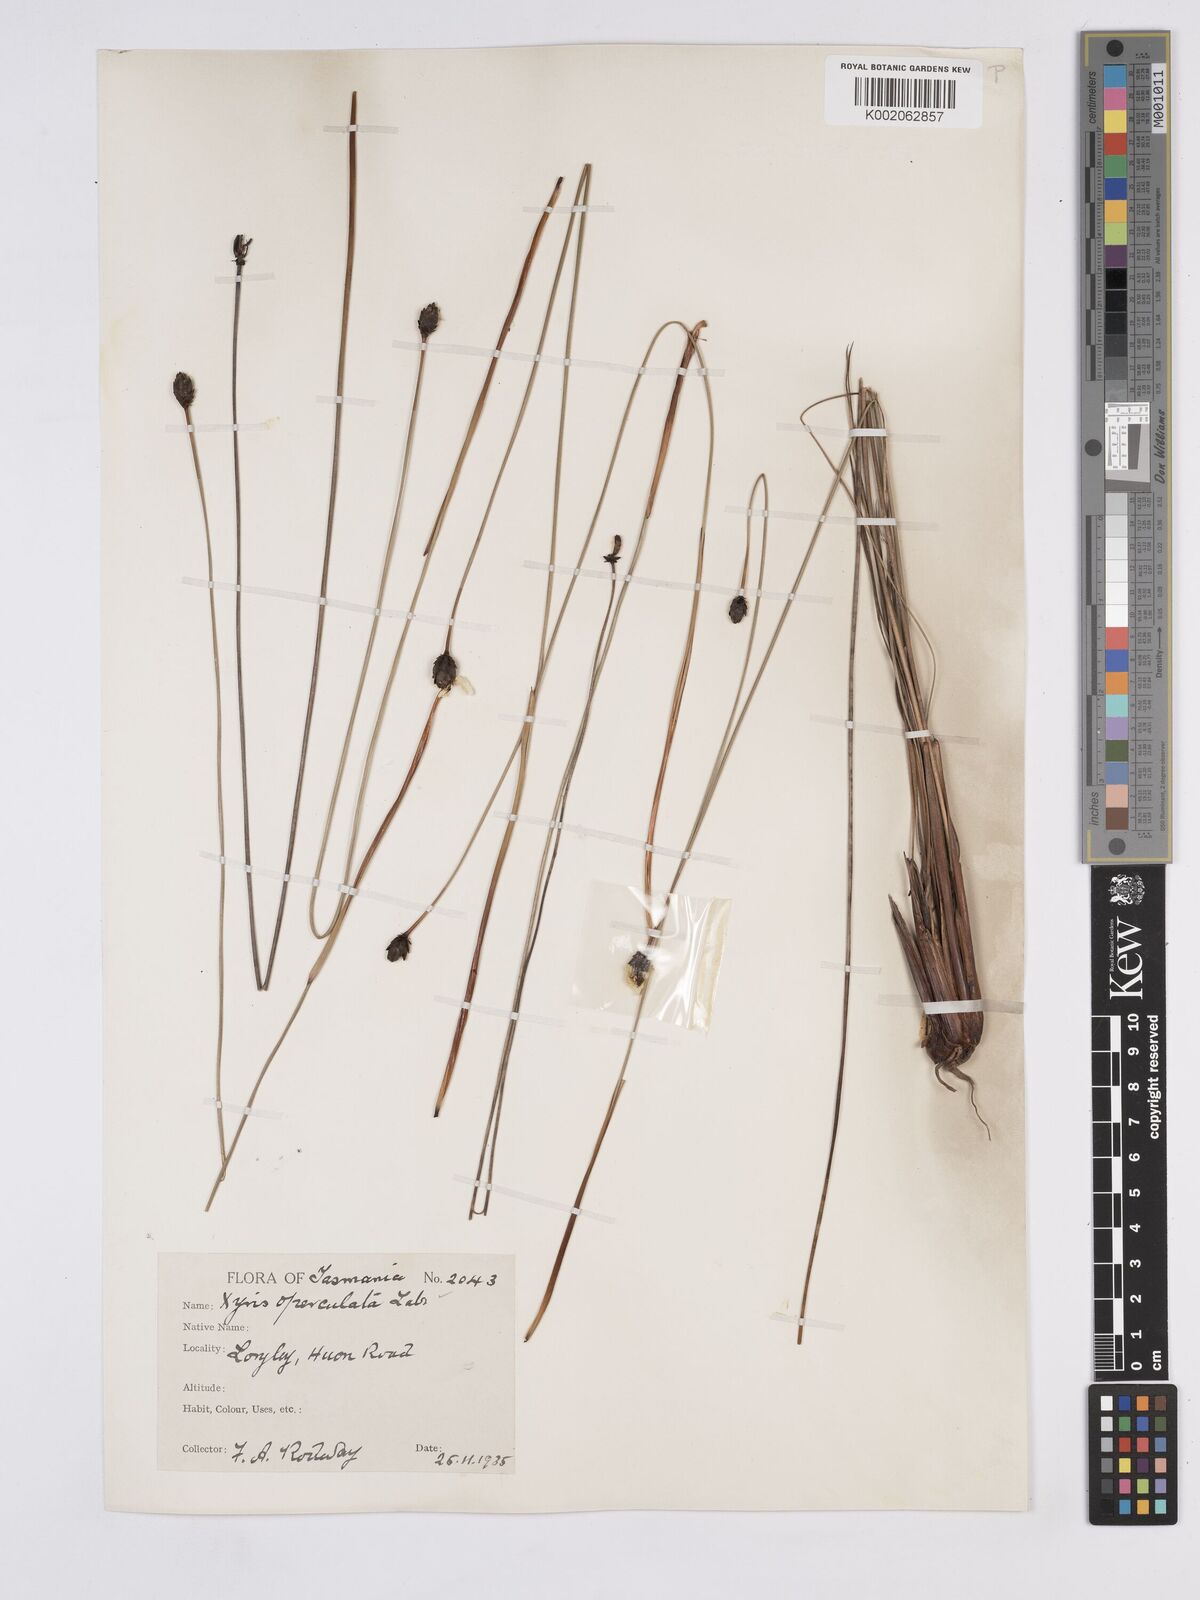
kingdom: Plantae
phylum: Tracheophyta
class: Liliopsida
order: Poales
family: Xyridaceae
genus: Xyris
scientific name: Xyris operculata
